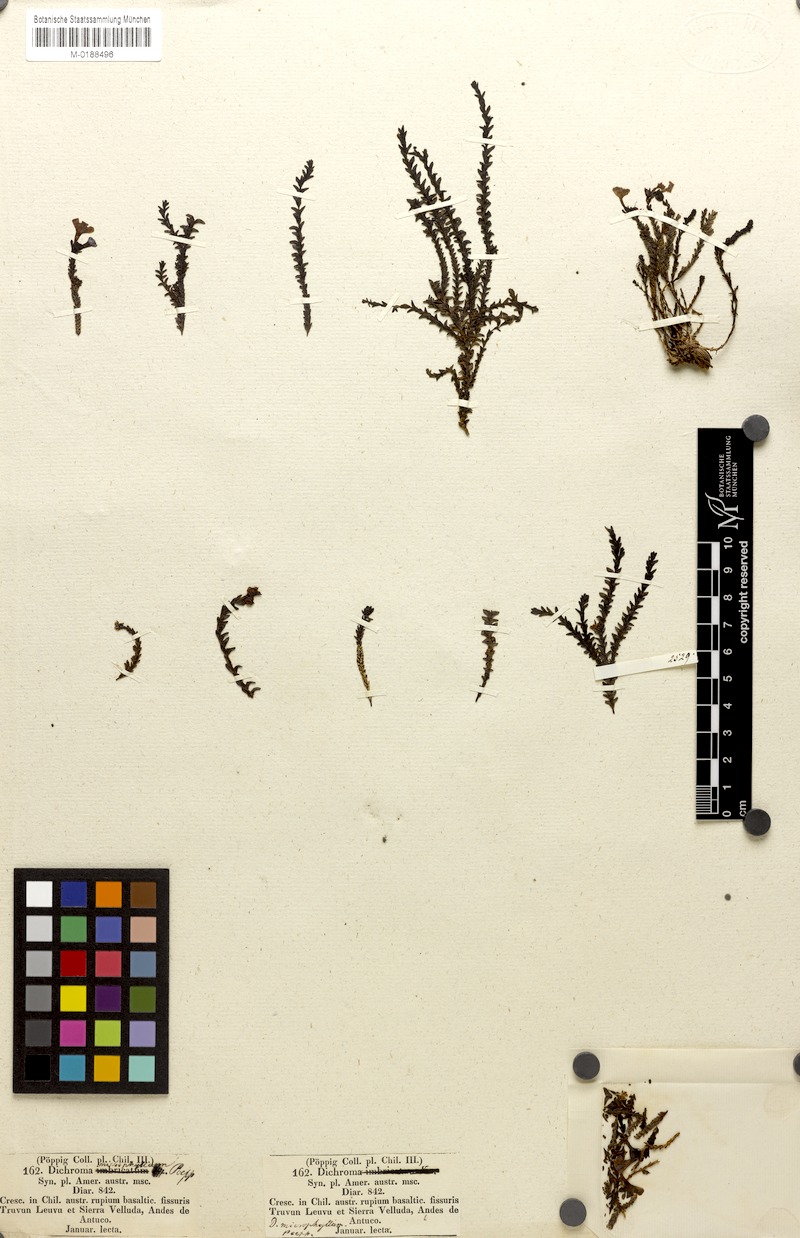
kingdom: Plantae
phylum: Tracheophyta
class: Magnoliopsida
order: Lamiales
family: Plantaginaceae
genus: Ourisia
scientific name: Ourisia microphylla
